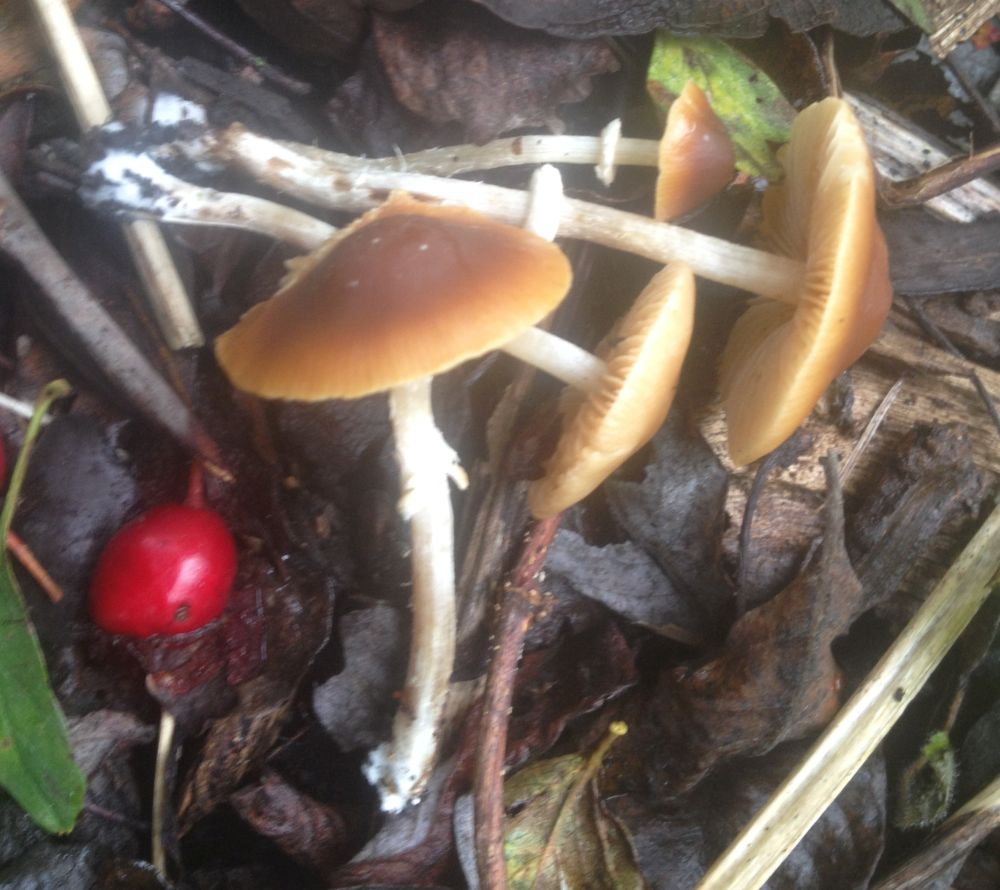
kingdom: Fungi
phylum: Basidiomycota
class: Agaricomycetes
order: Agaricales
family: Bolbitiaceae
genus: Pholiotina
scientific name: Pholiotina
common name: dansehat
